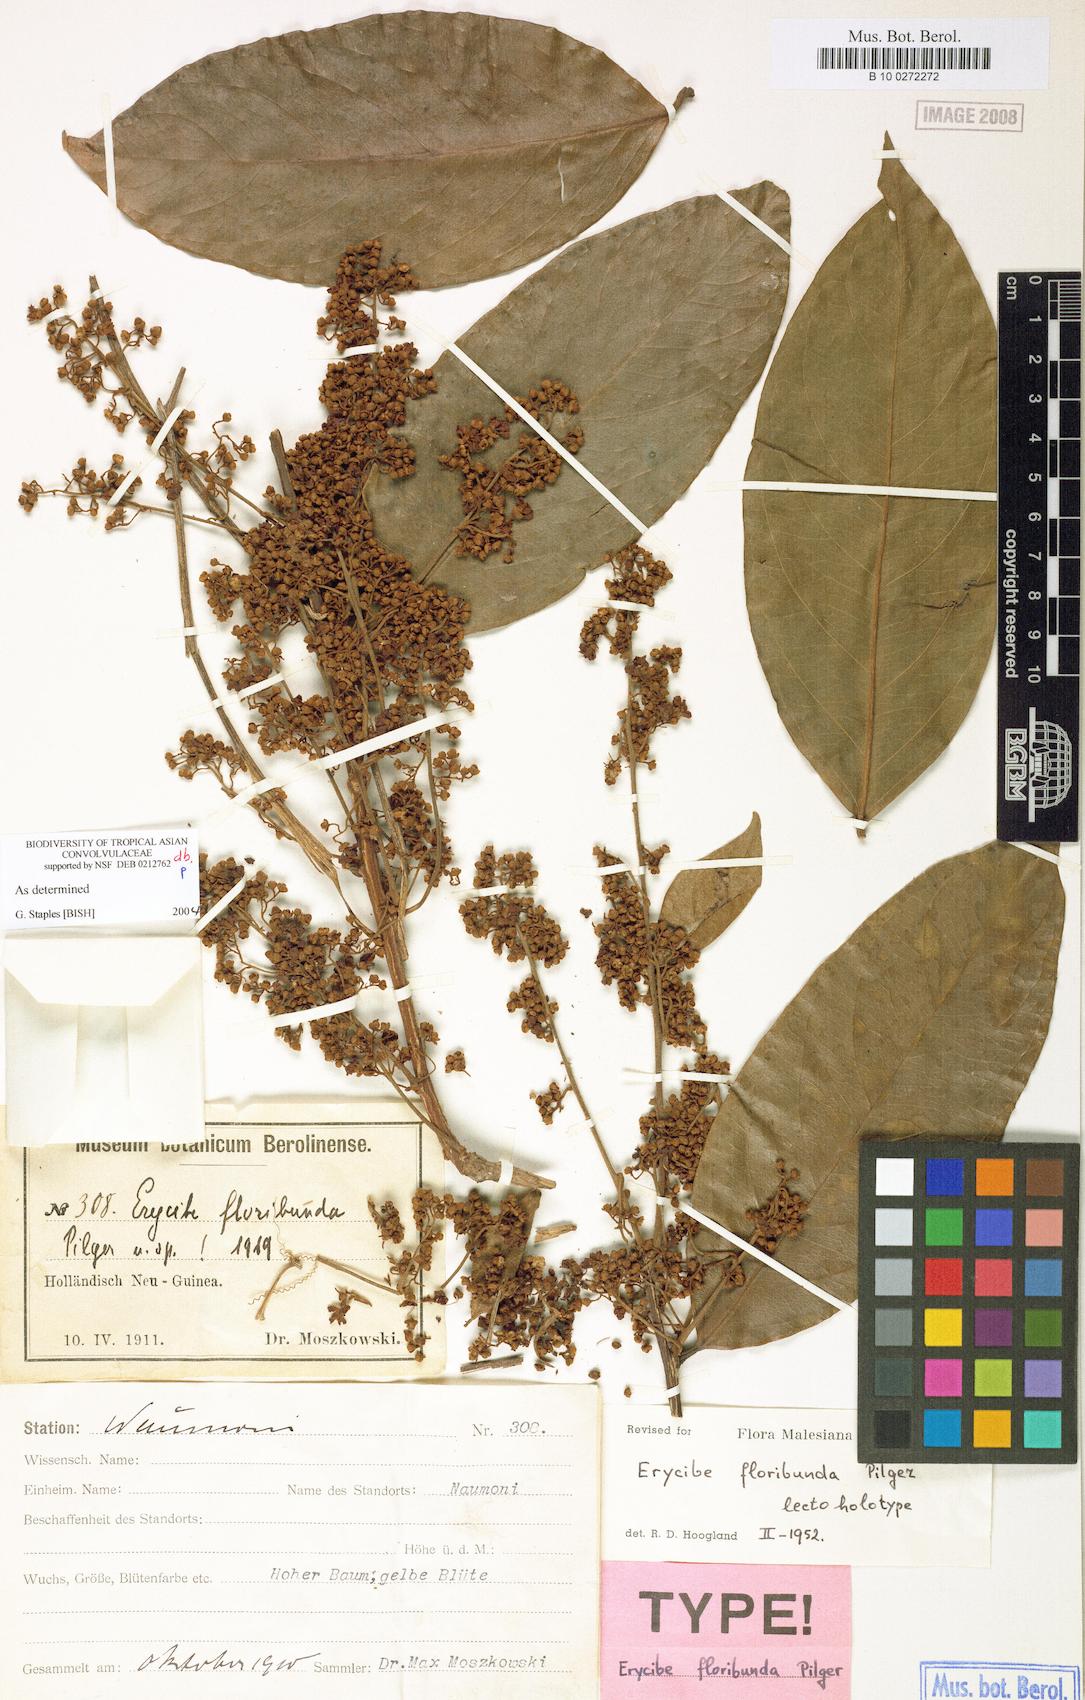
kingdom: Plantae
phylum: Tracheophyta
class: Magnoliopsida
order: Solanales
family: Convolvulaceae
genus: Erycibe
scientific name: Erycibe floribunda
